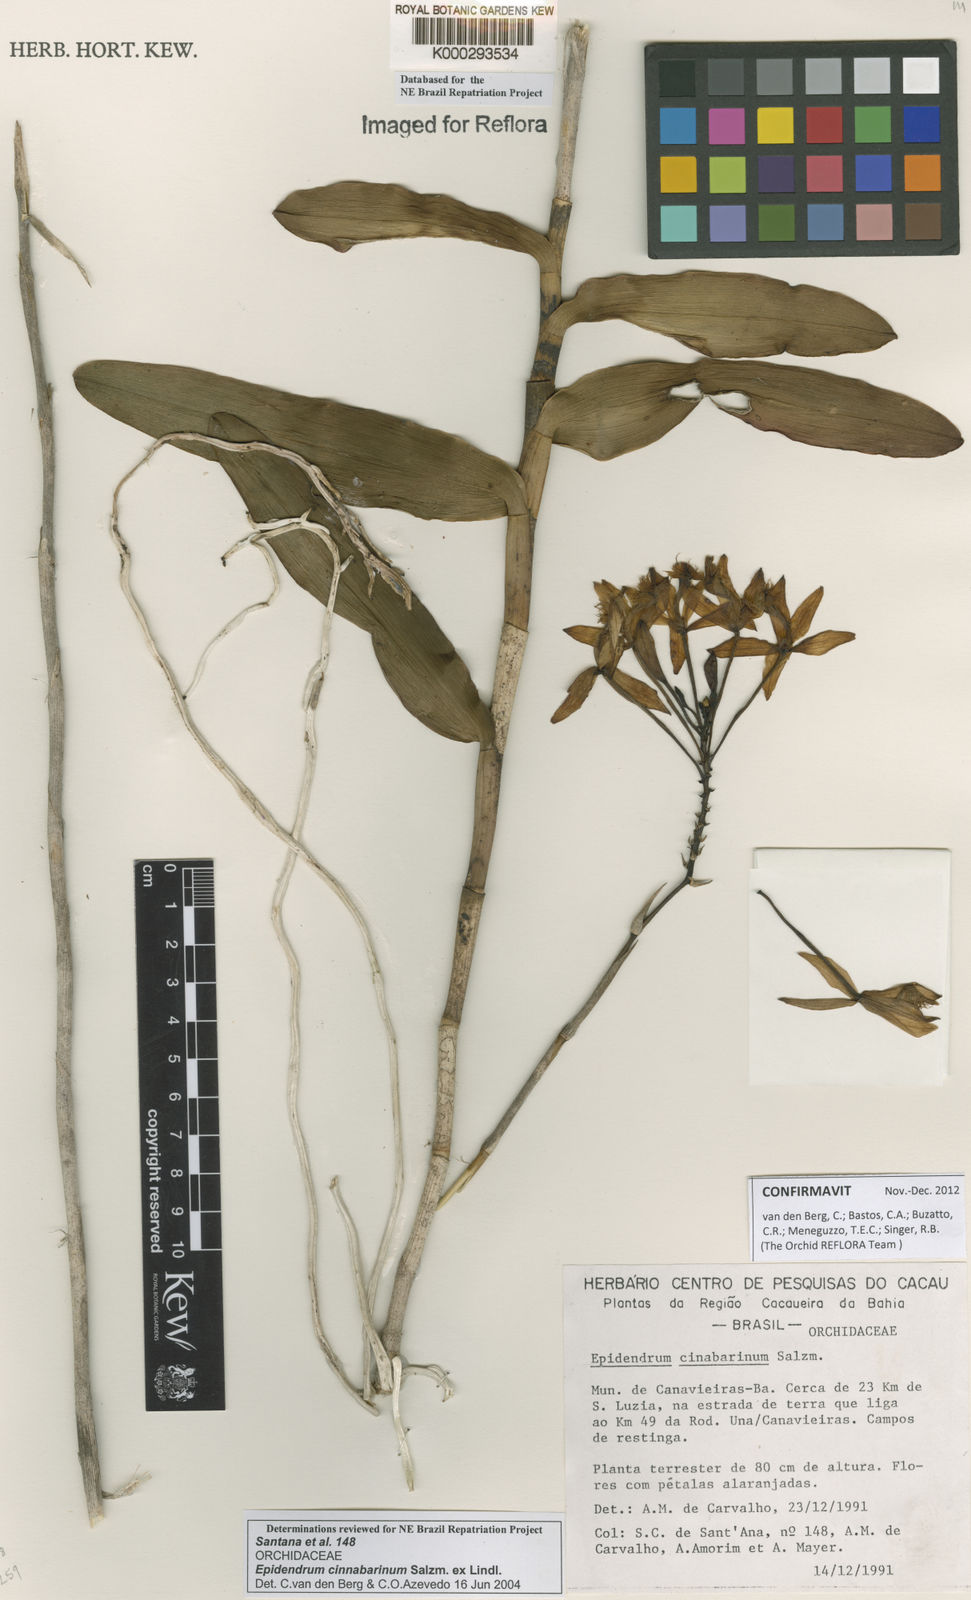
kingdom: Plantae
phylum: Tracheophyta
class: Liliopsida
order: Asparagales
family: Orchidaceae
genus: Epidendrum
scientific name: Epidendrum cinnabarinum
